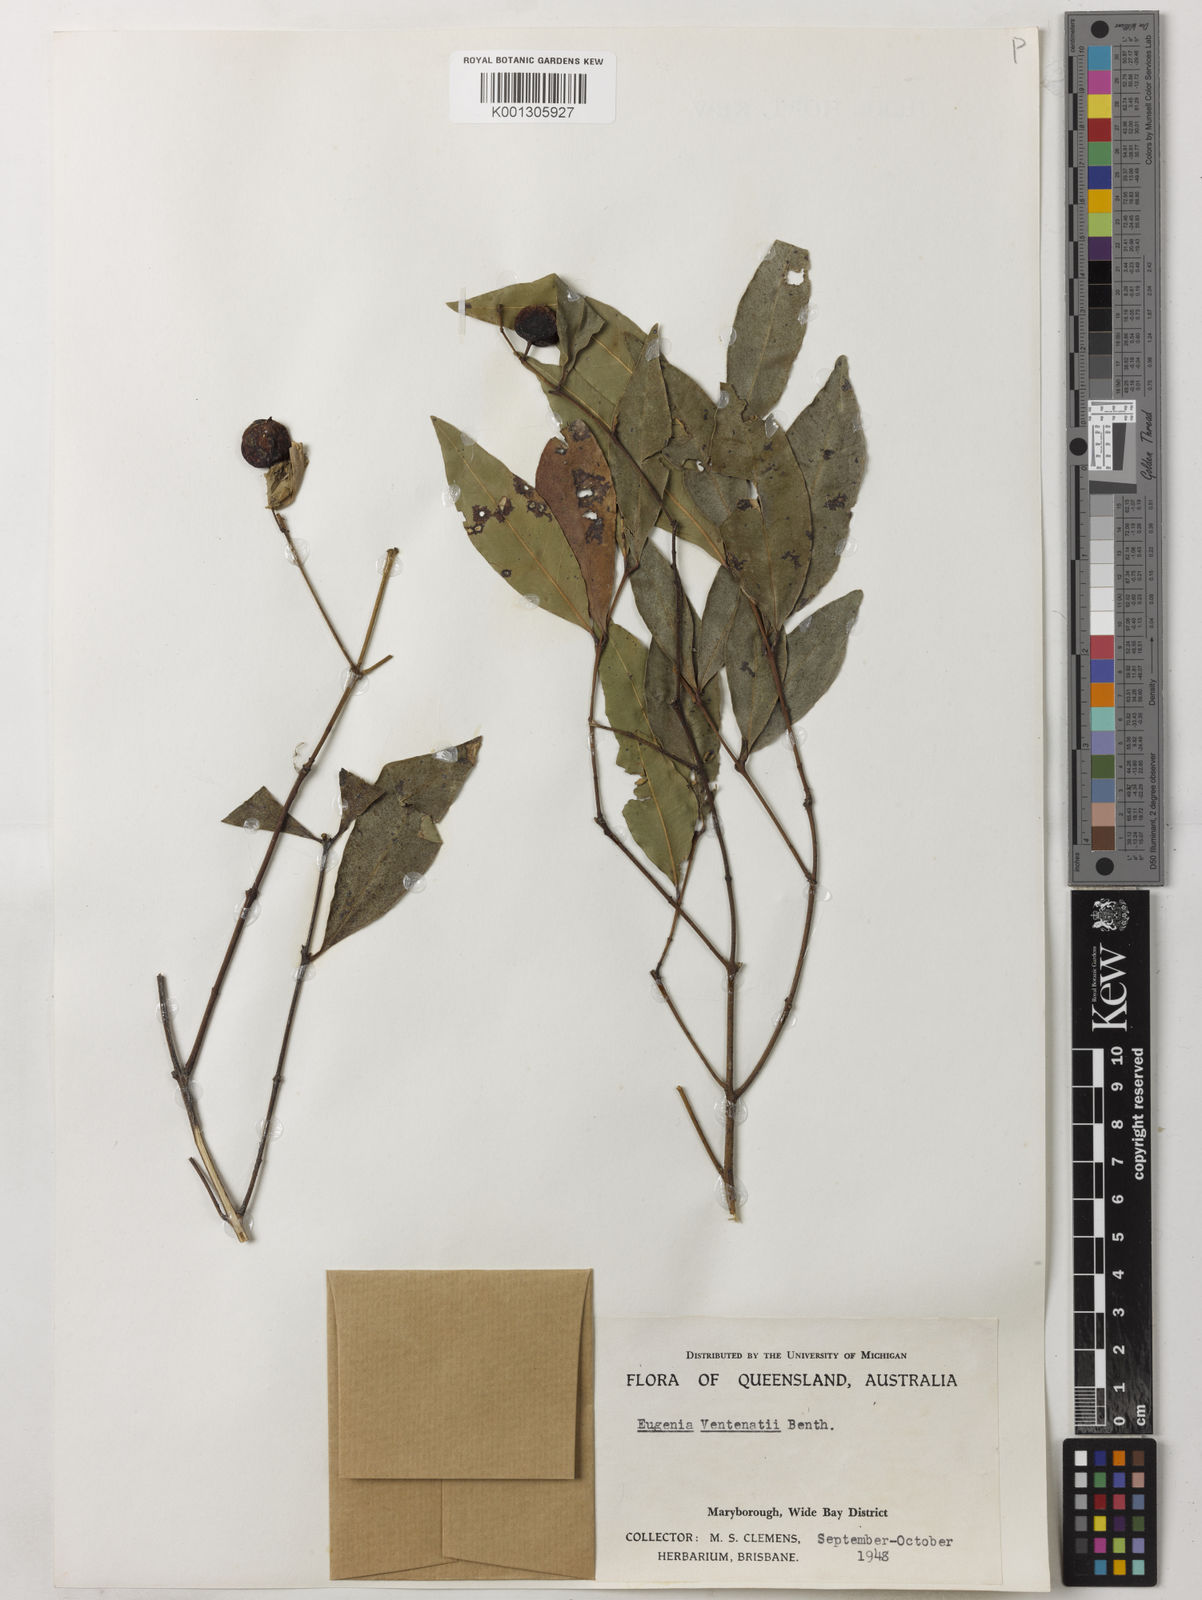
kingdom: Plantae
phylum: Tracheophyta
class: Magnoliopsida
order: Myrtales
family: Myrtaceae
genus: Syzygium
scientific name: Syzygium floribundum
